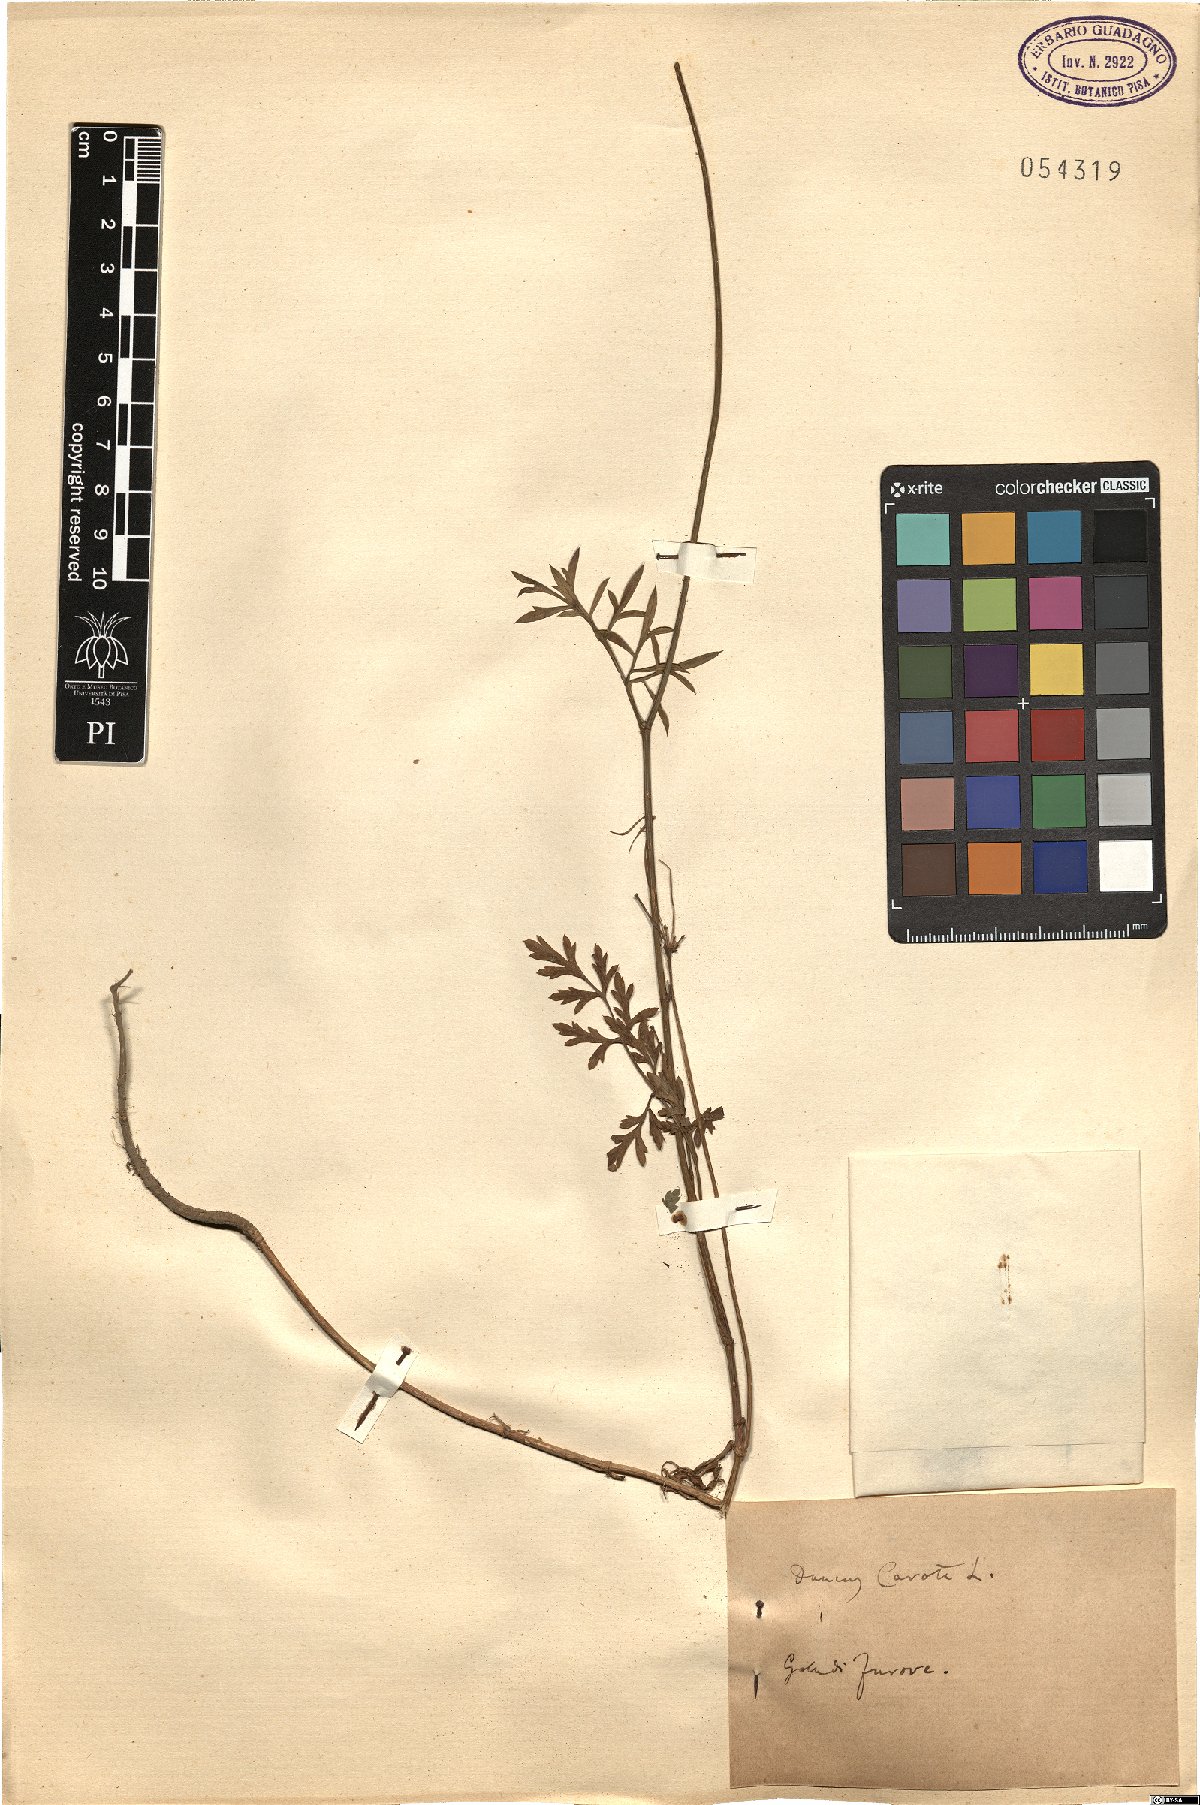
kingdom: Plantae
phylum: Tracheophyta
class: Magnoliopsida
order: Apiales
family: Apiaceae
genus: Daucus
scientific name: Daucus carota
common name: Wild carrot
